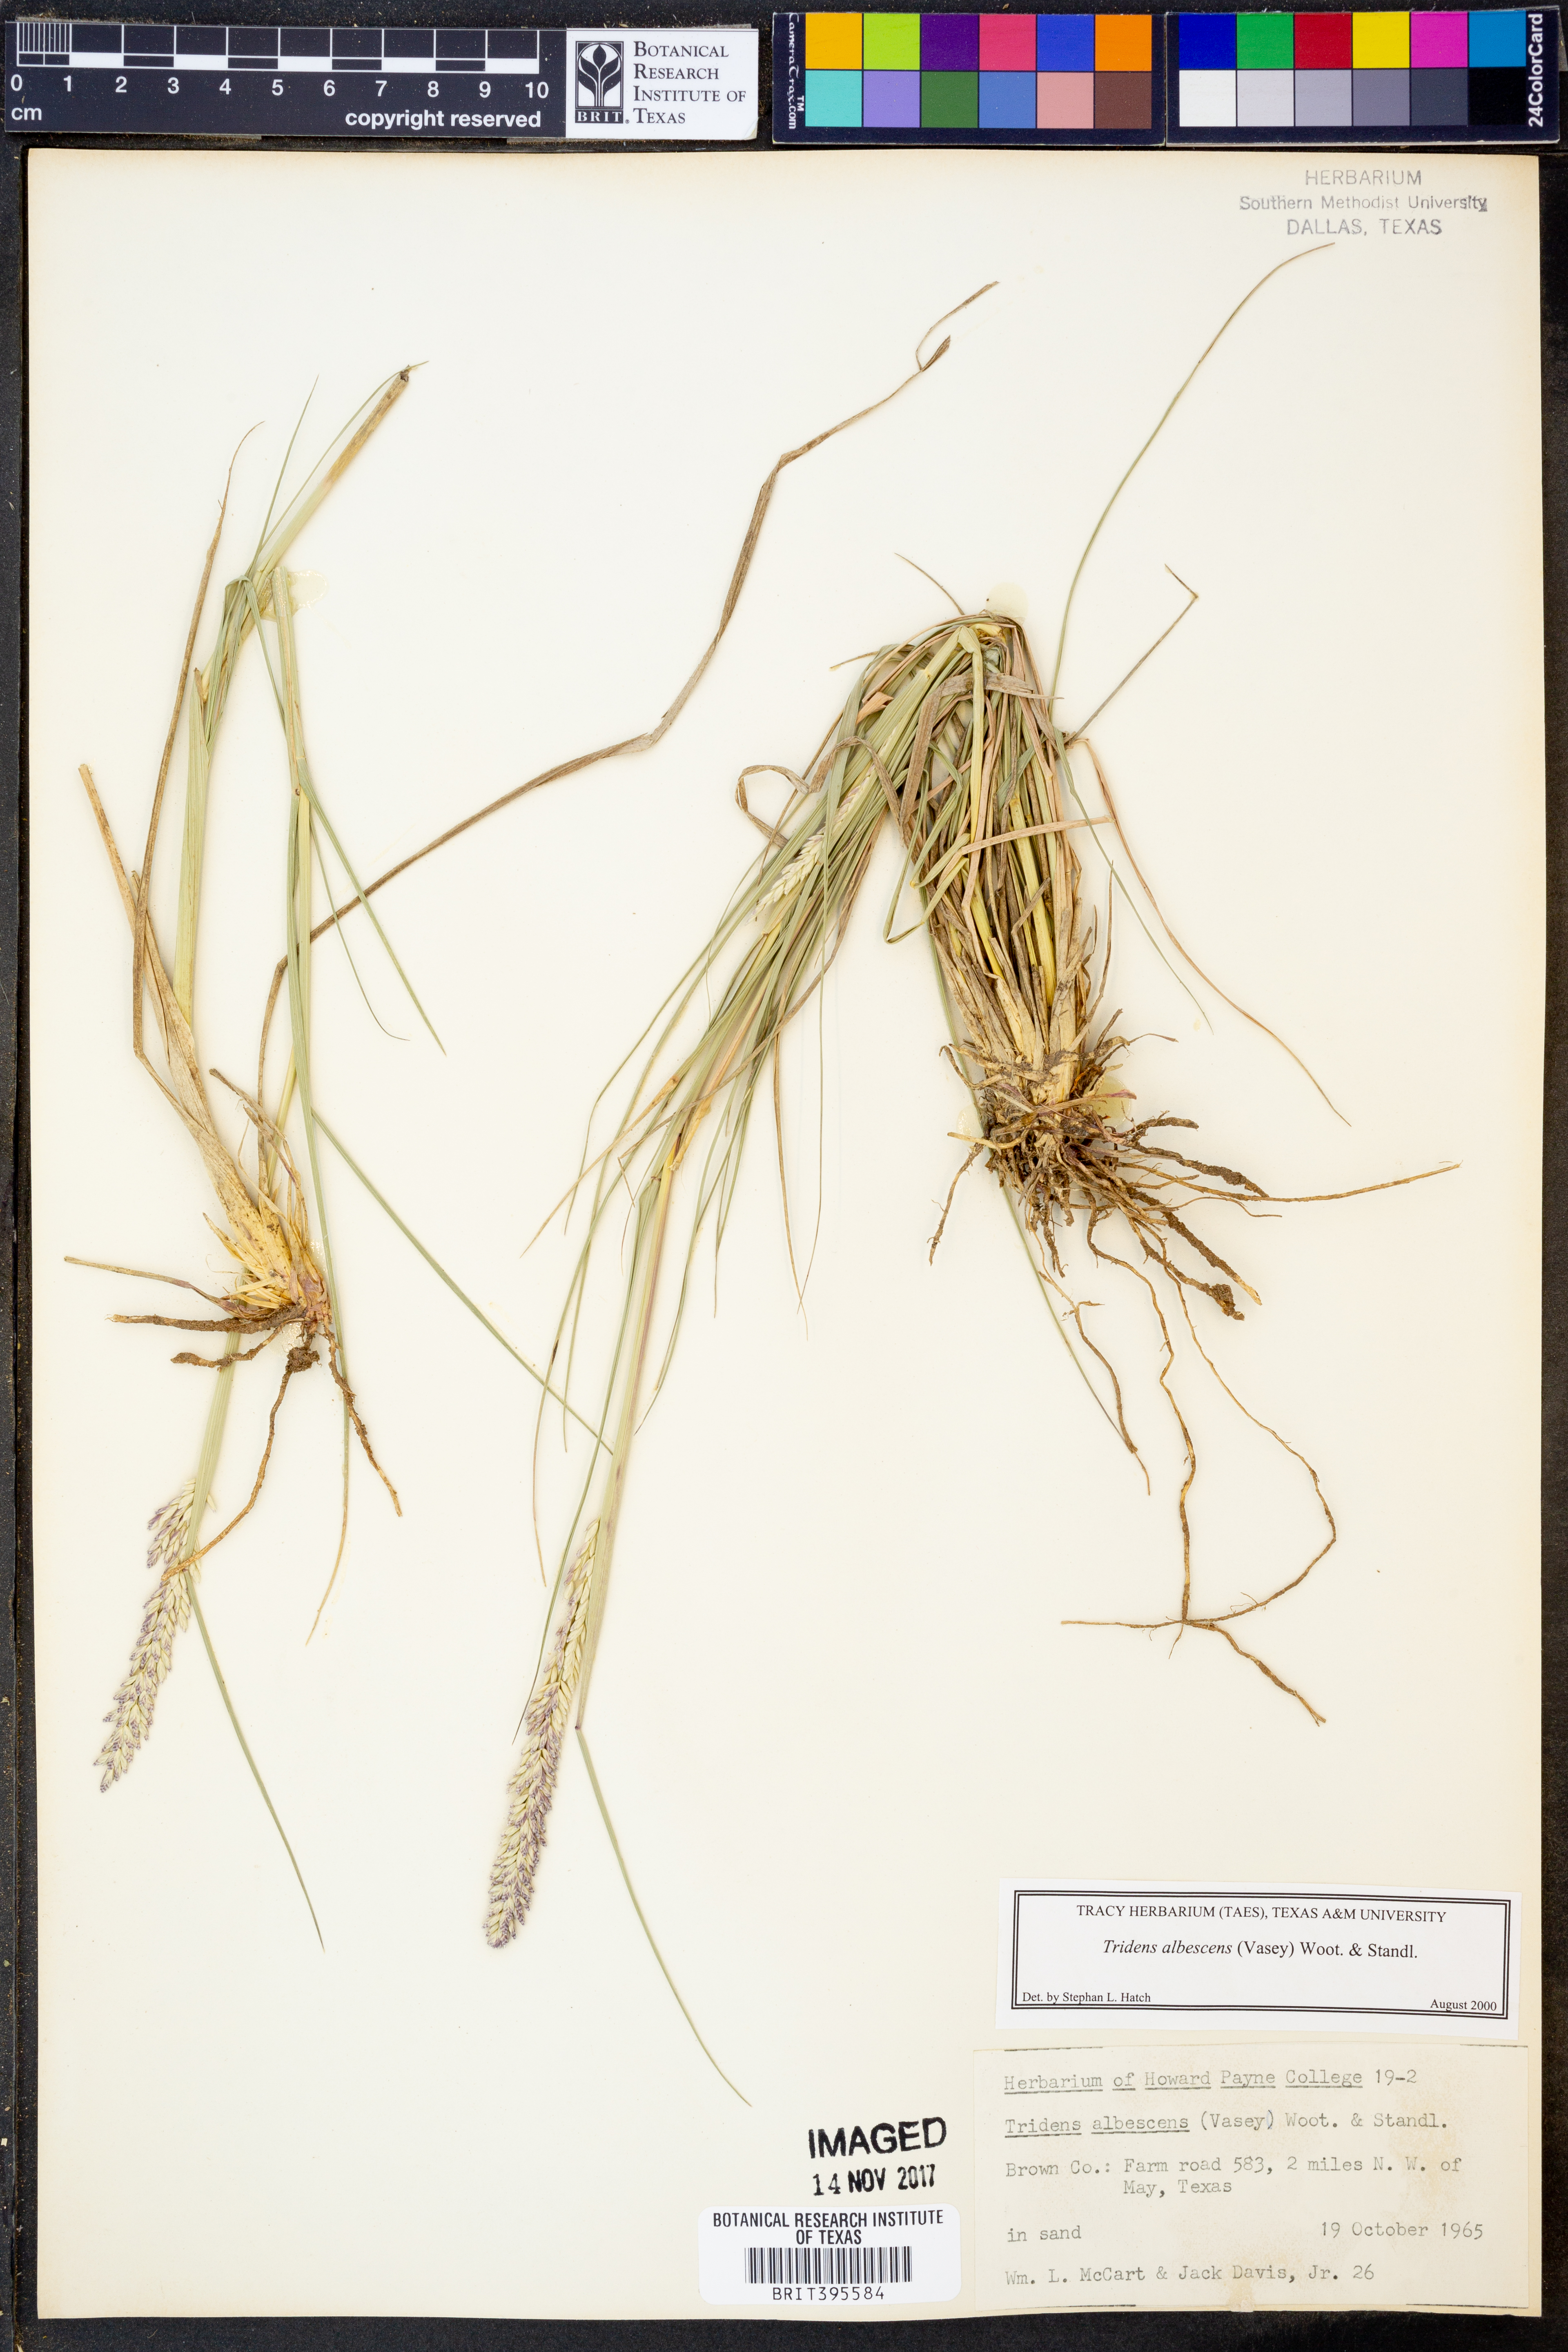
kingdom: Plantae
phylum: Tracheophyta
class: Liliopsida
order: Poales
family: Poaceae
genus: Tridens
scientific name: Tridens albescens
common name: White tridens
